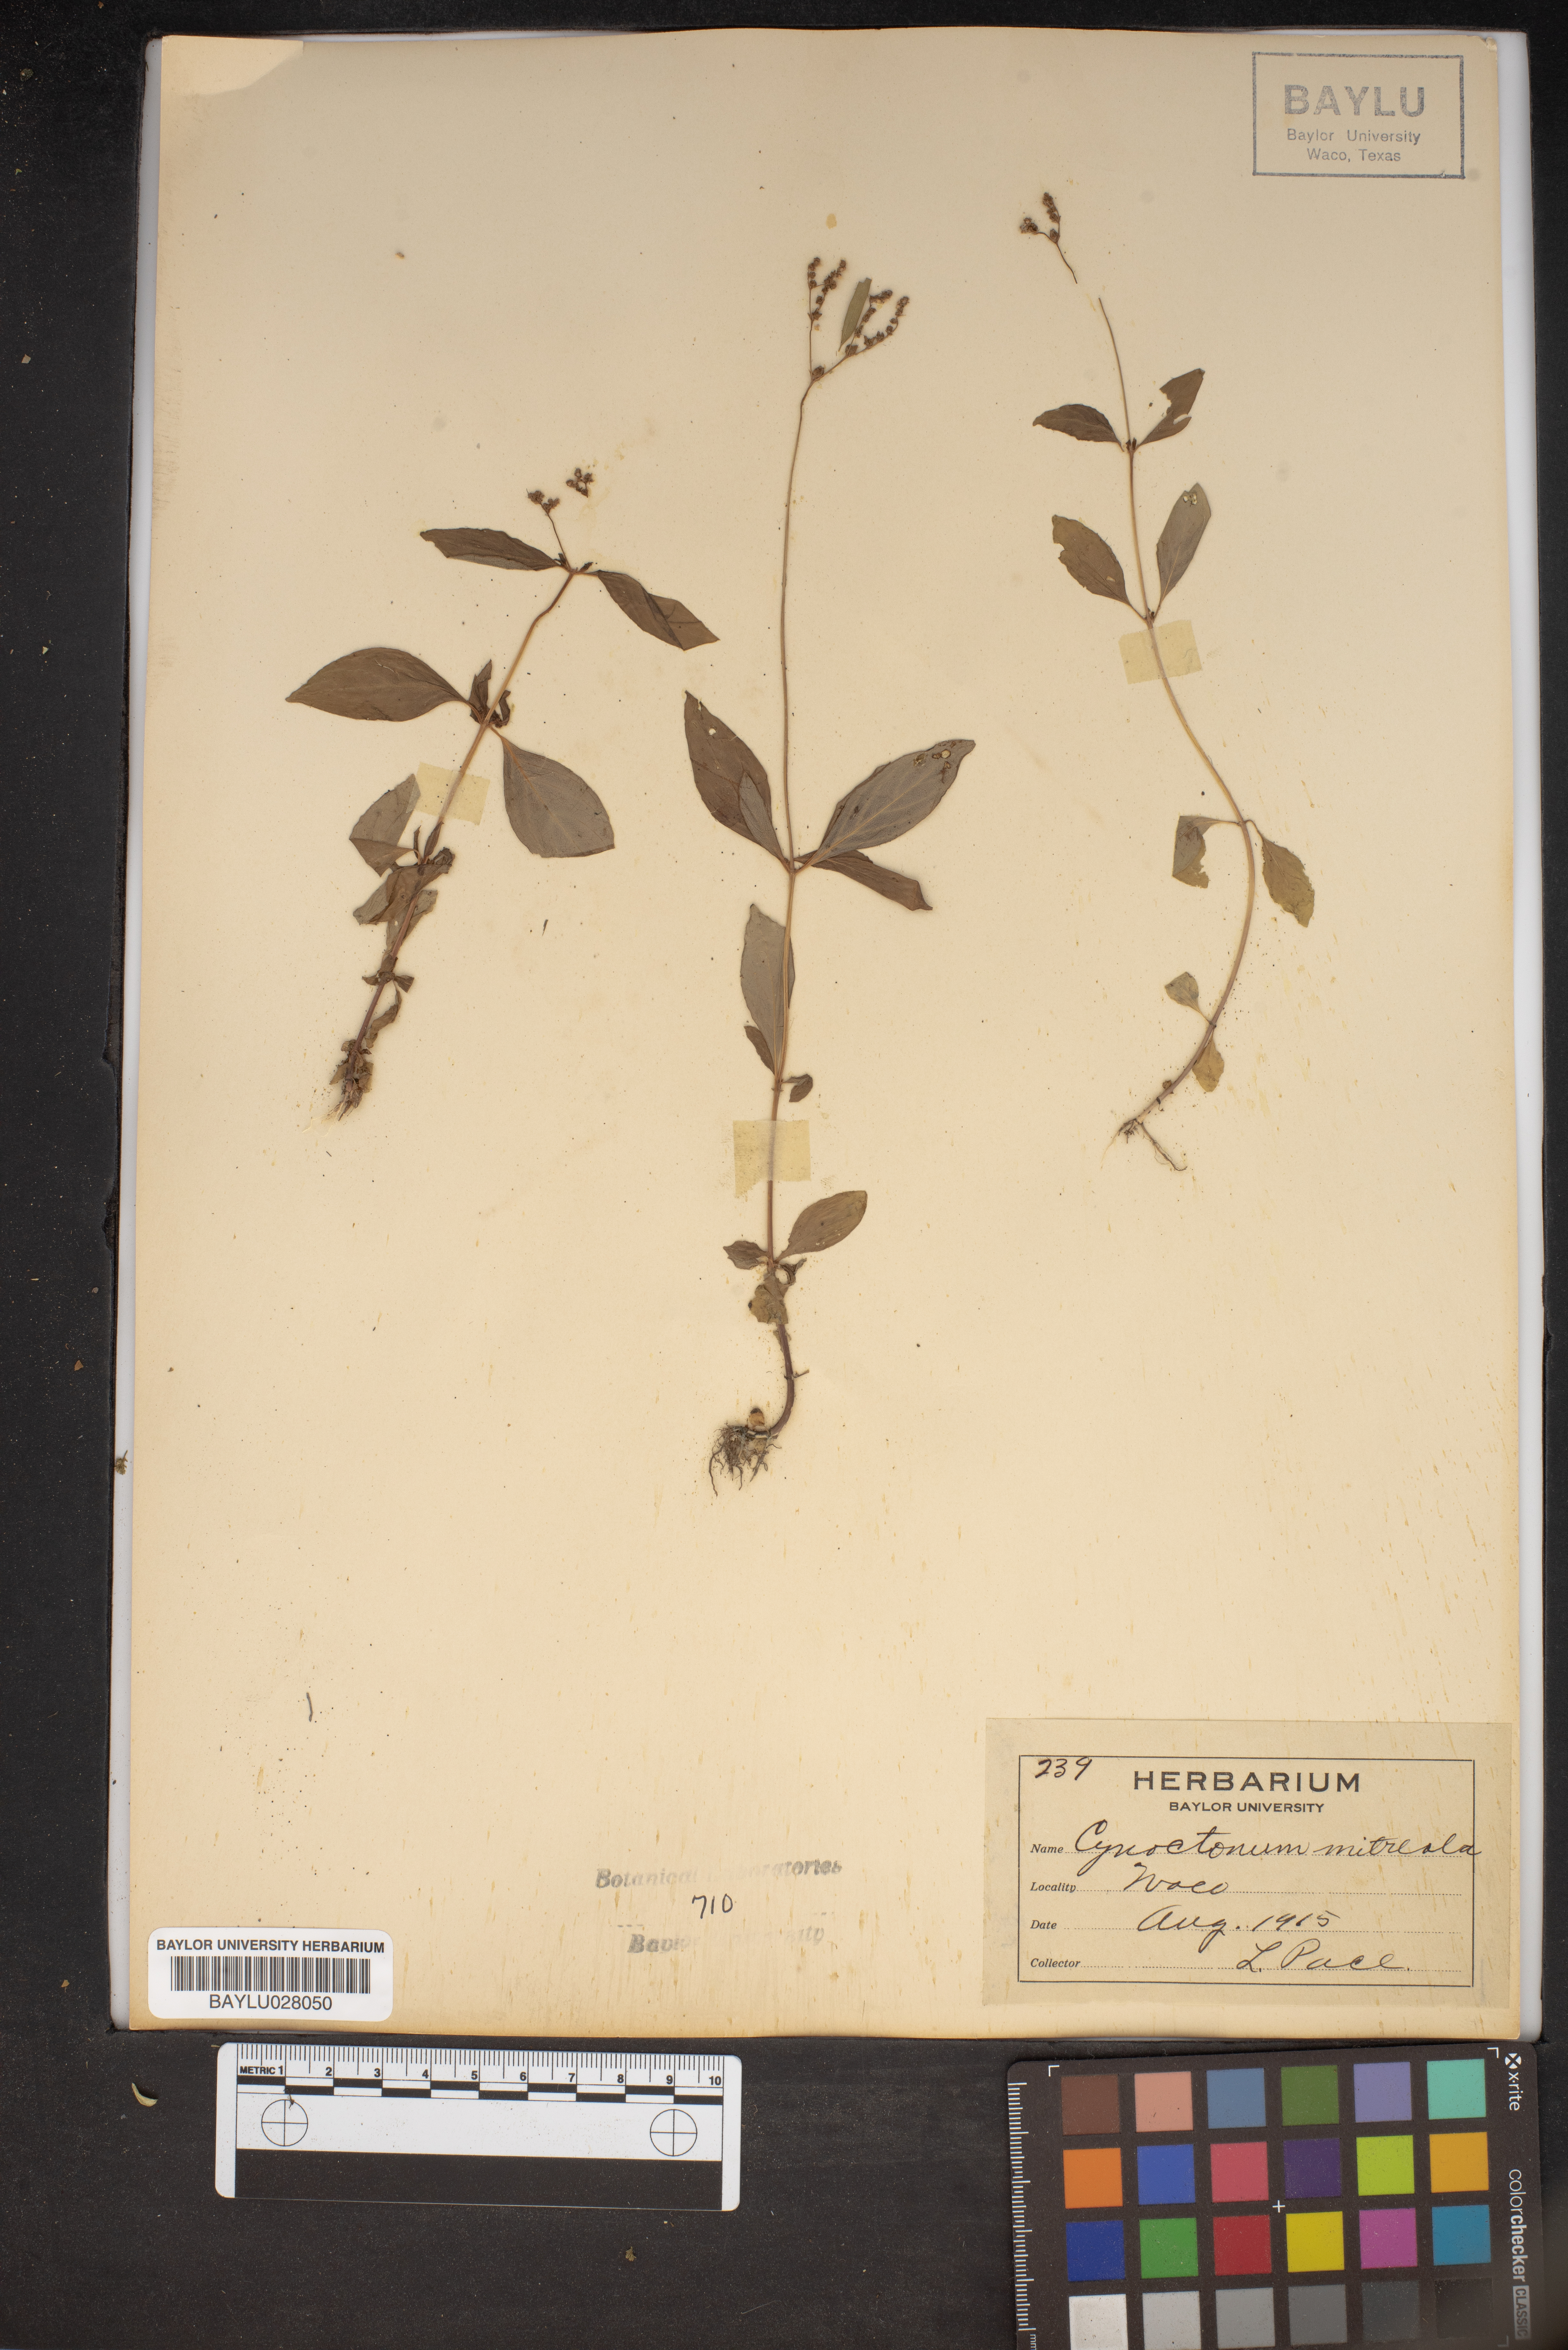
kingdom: Plantae
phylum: Tracheophyta
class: Magnoliopsida
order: Gentianales
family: Loganiaceae
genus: Mitreola
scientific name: Mitreola petiolata
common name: Lax hornpod
